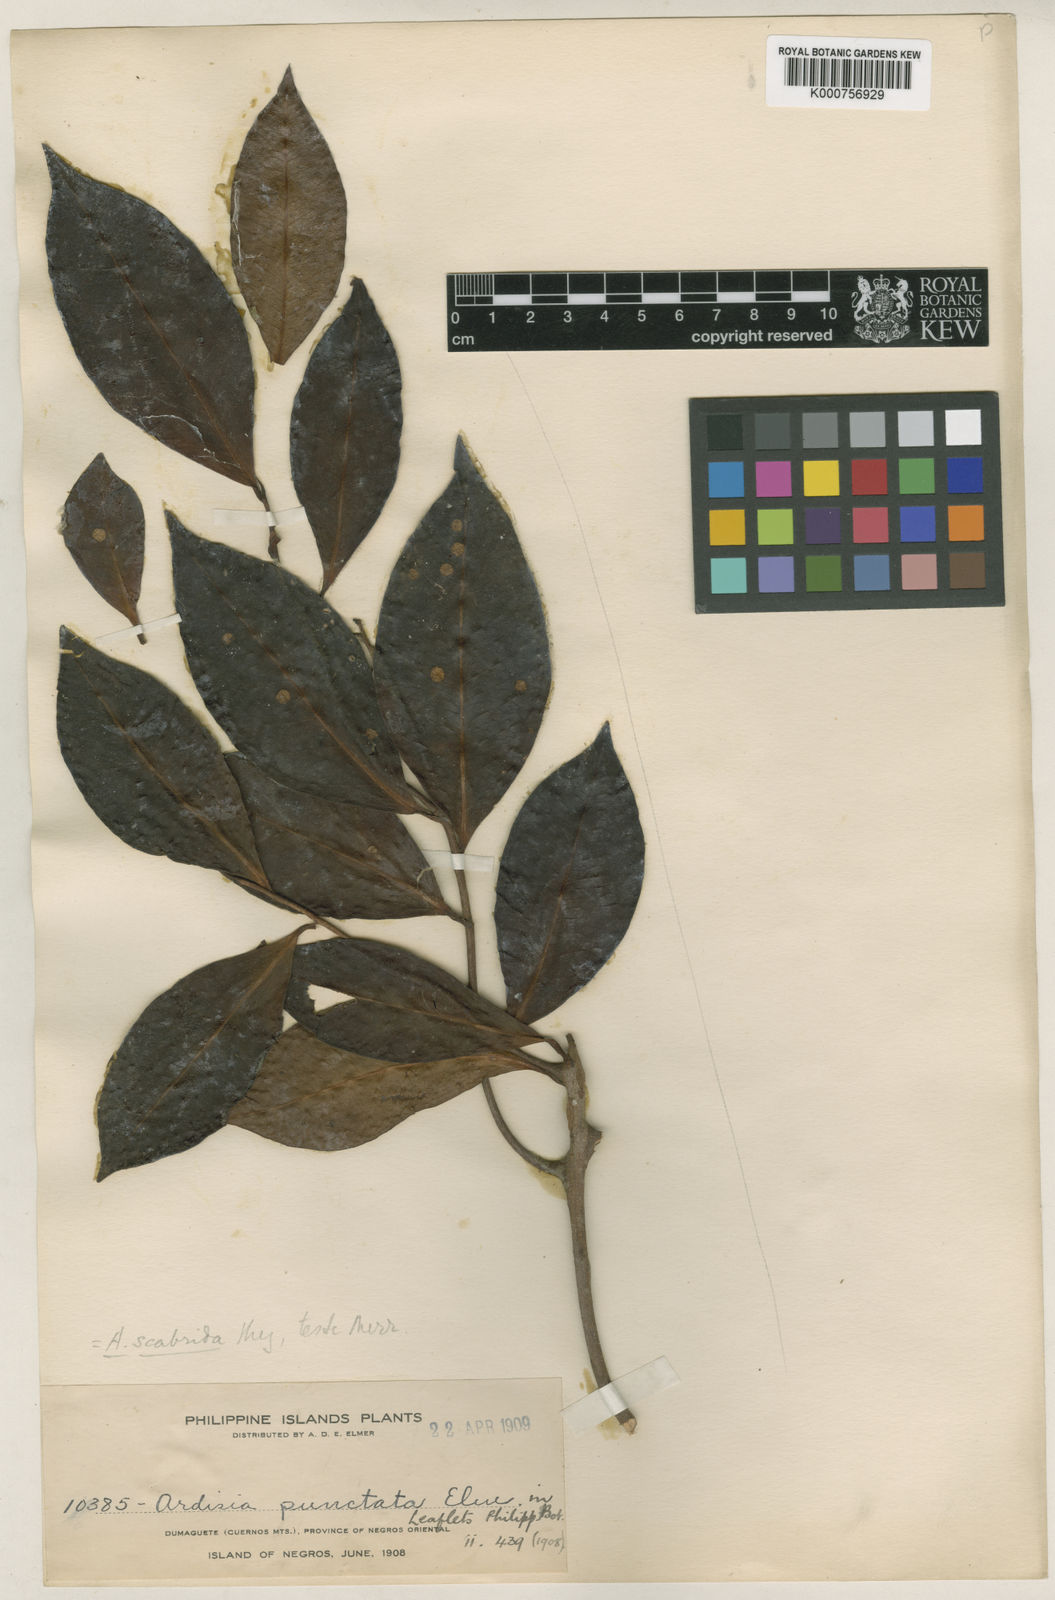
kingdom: Plantae
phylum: Tracheophyta
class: Magnoliopsida
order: Ericales
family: Primulaceae
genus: Ardisia
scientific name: Ardisia scabrida
